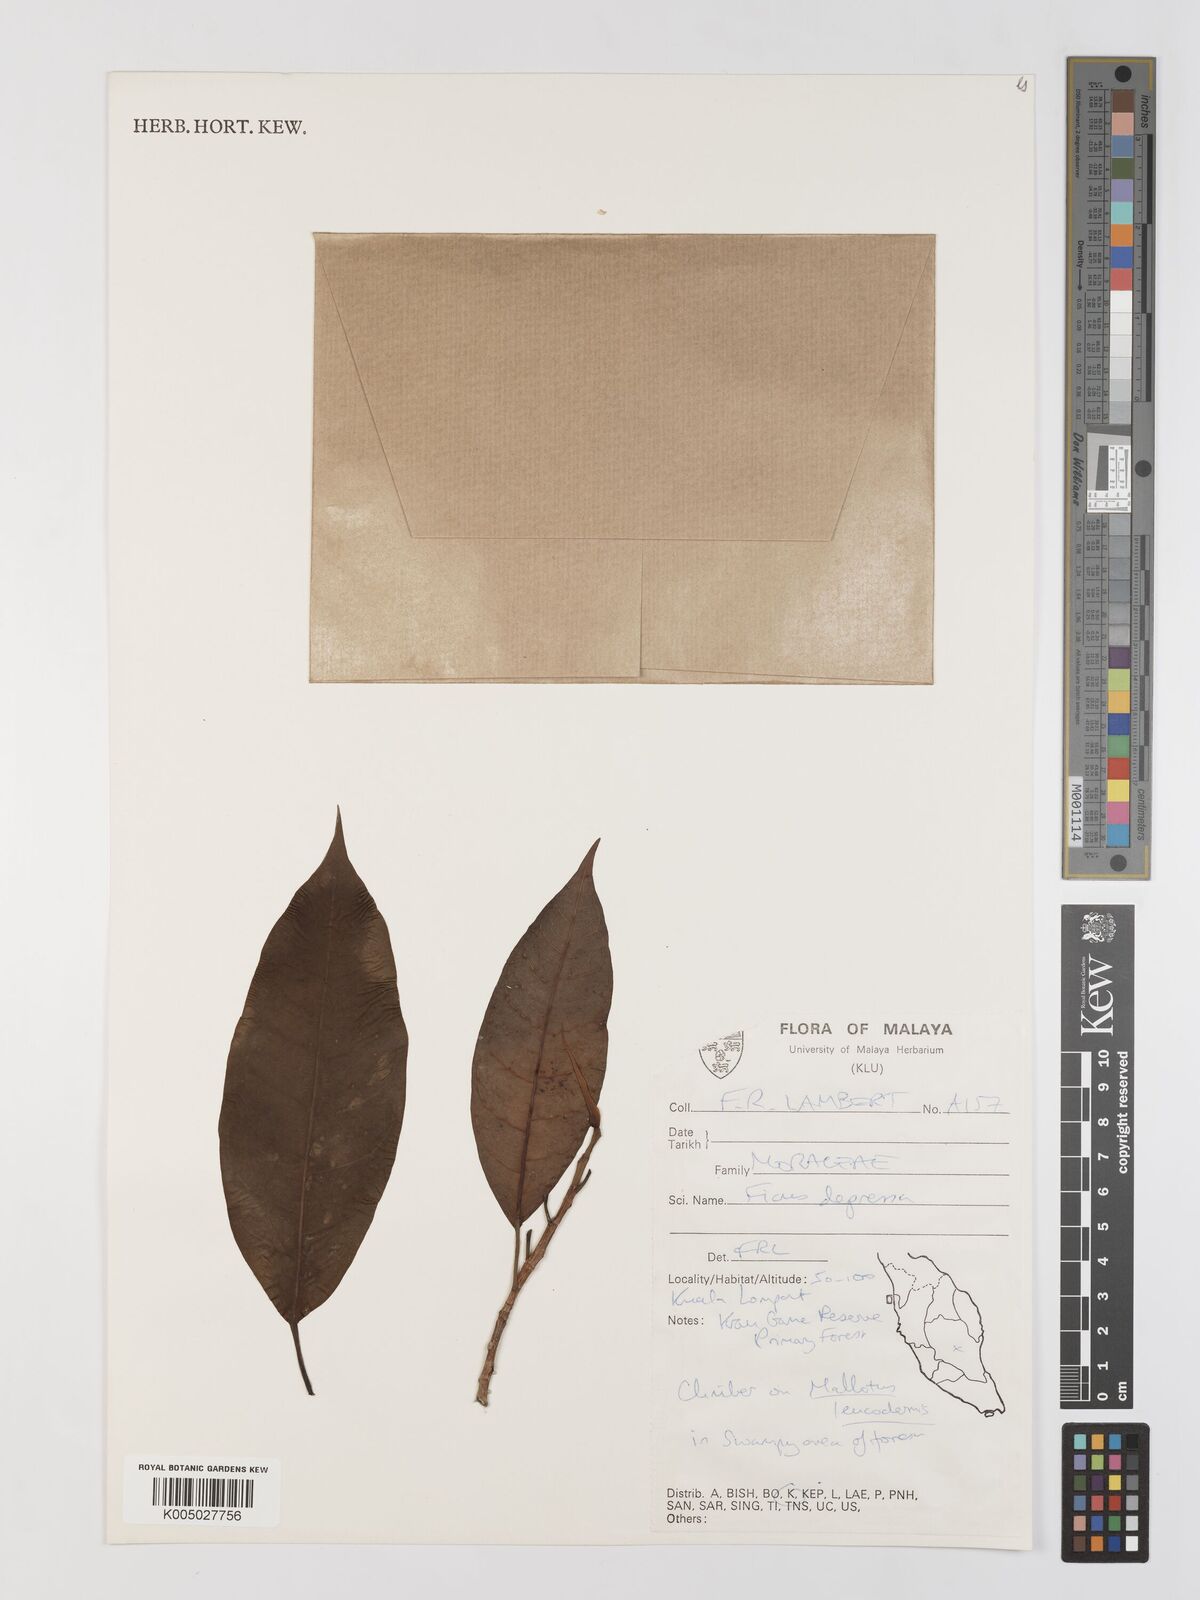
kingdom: Plantae
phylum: Tracheophyta
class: Magnoliopsida
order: Rosales
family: Moraceae
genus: Ficus
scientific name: Ficus
